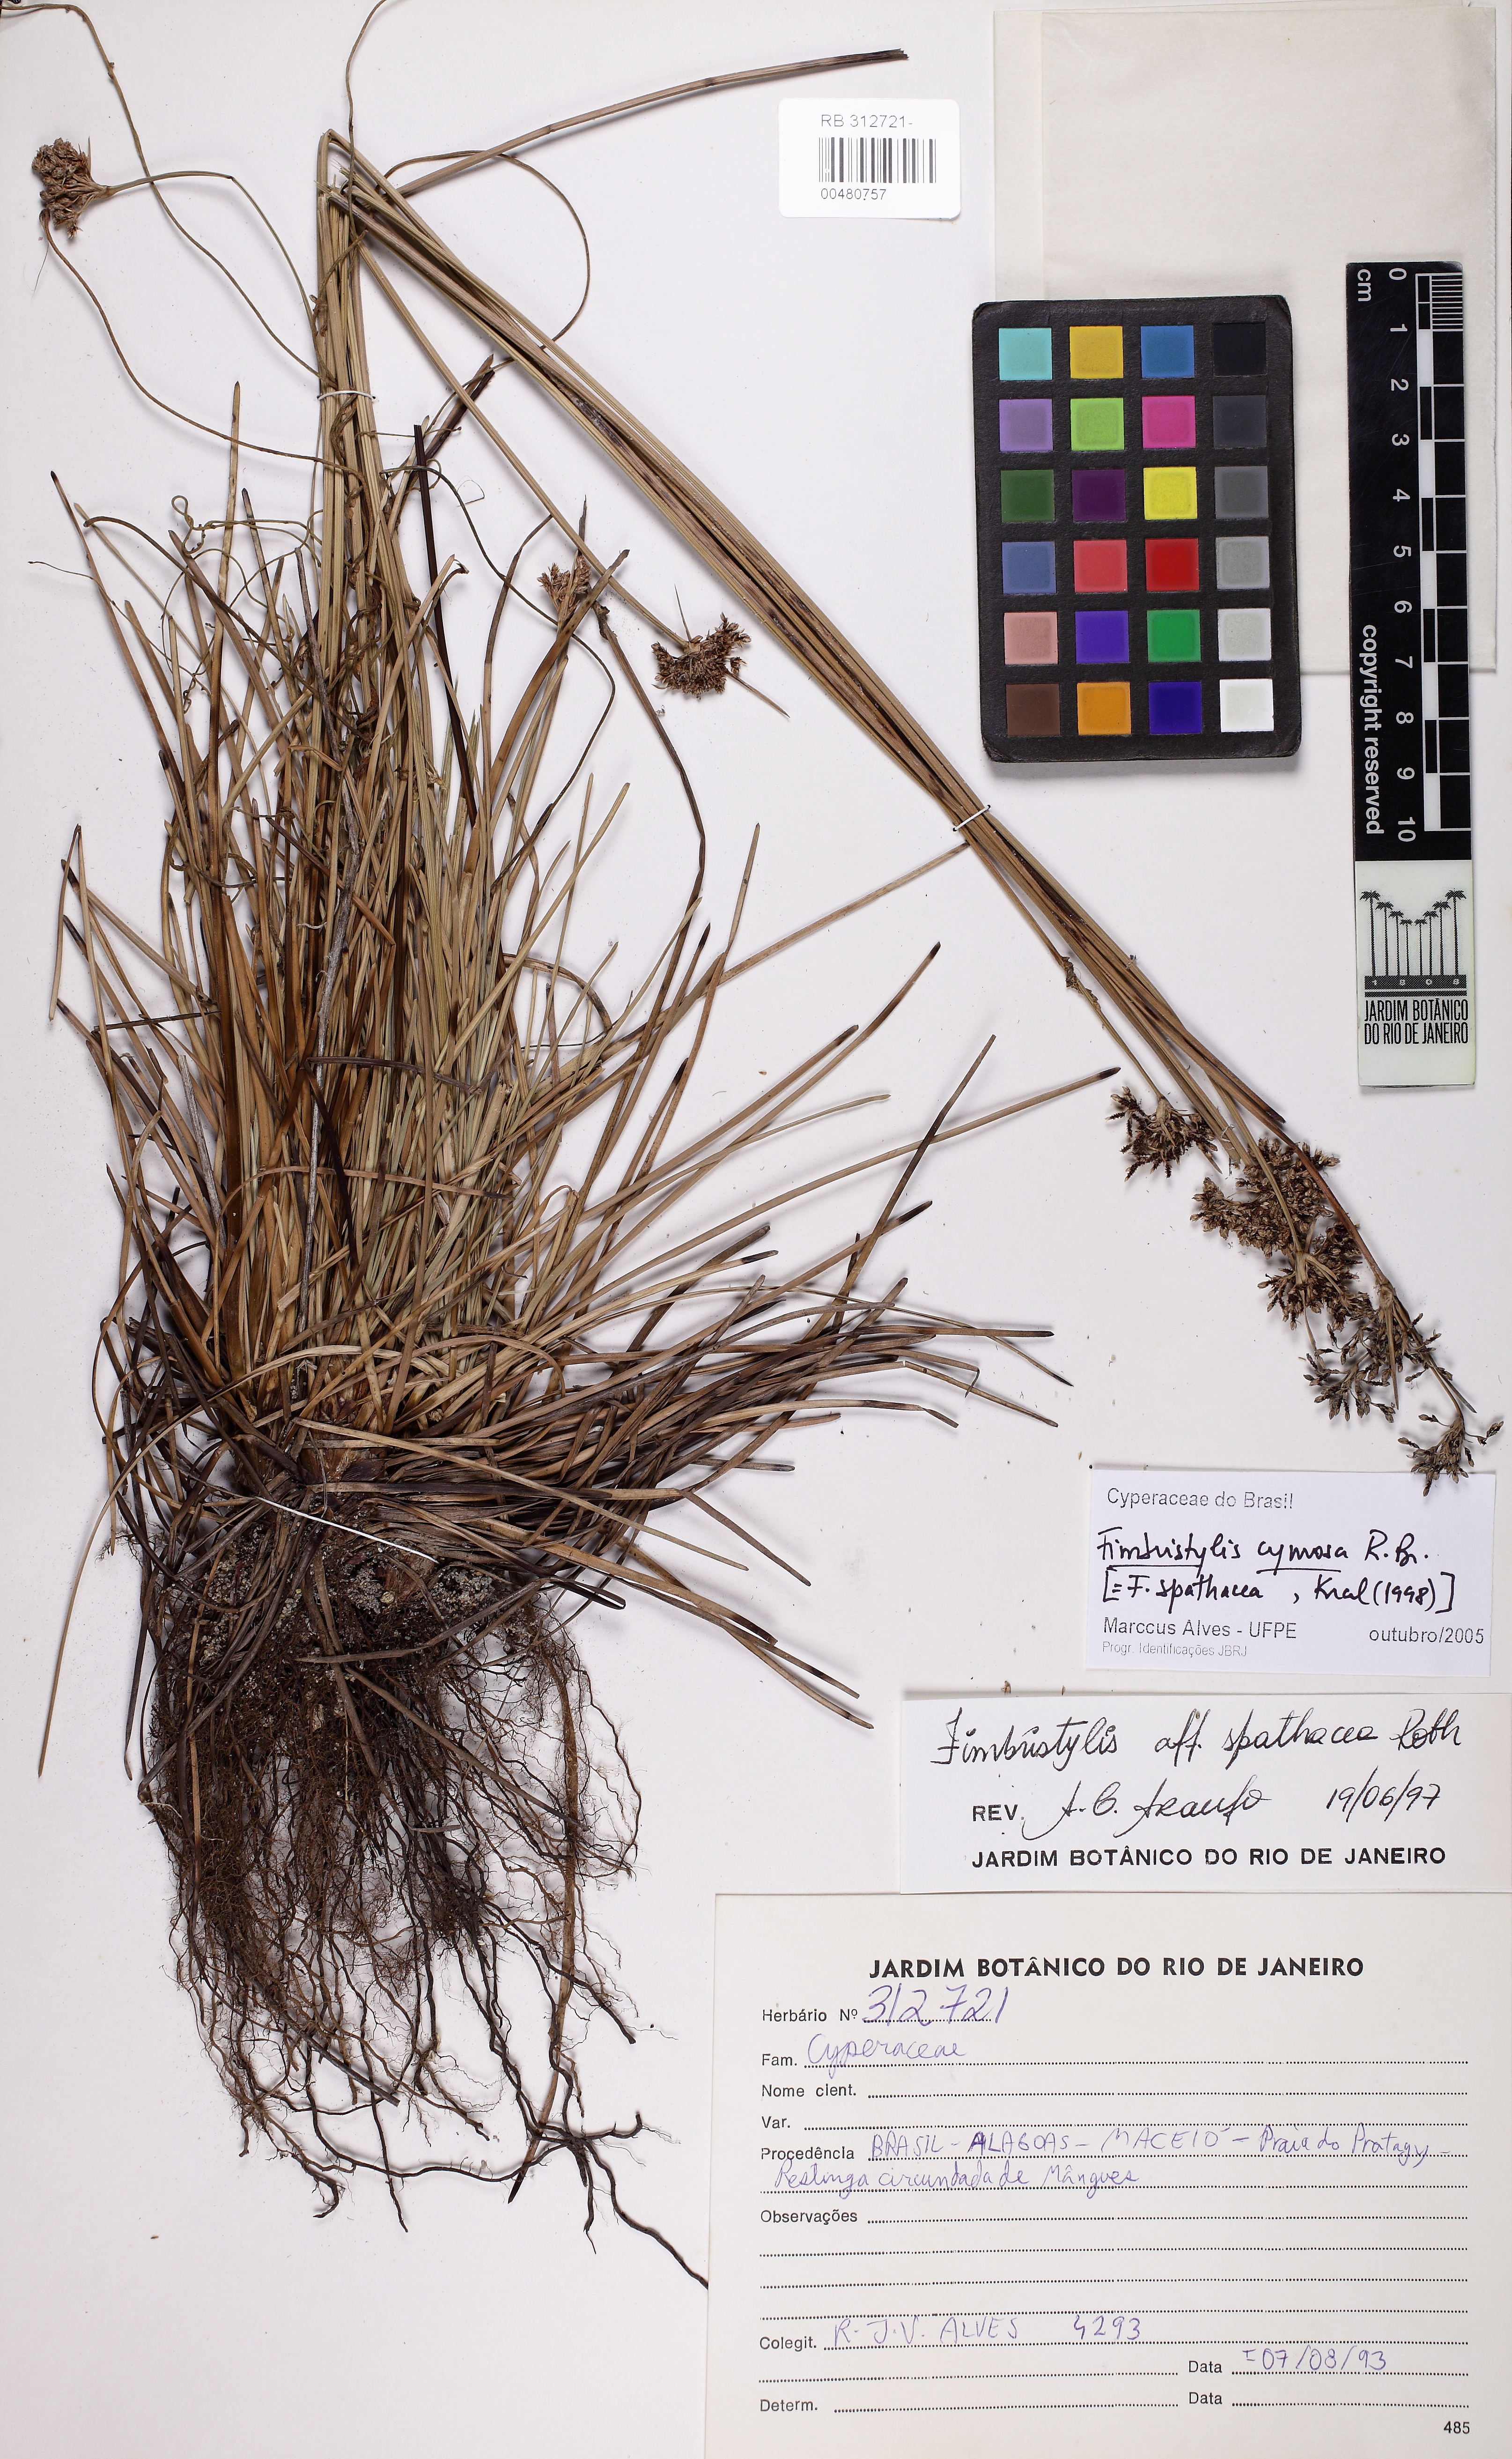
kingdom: Plantae
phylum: Tracheophyta
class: Liliopsida
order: Poales
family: Cyperaceae
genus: Fimbristylis
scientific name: Fimbristylis cymosa
